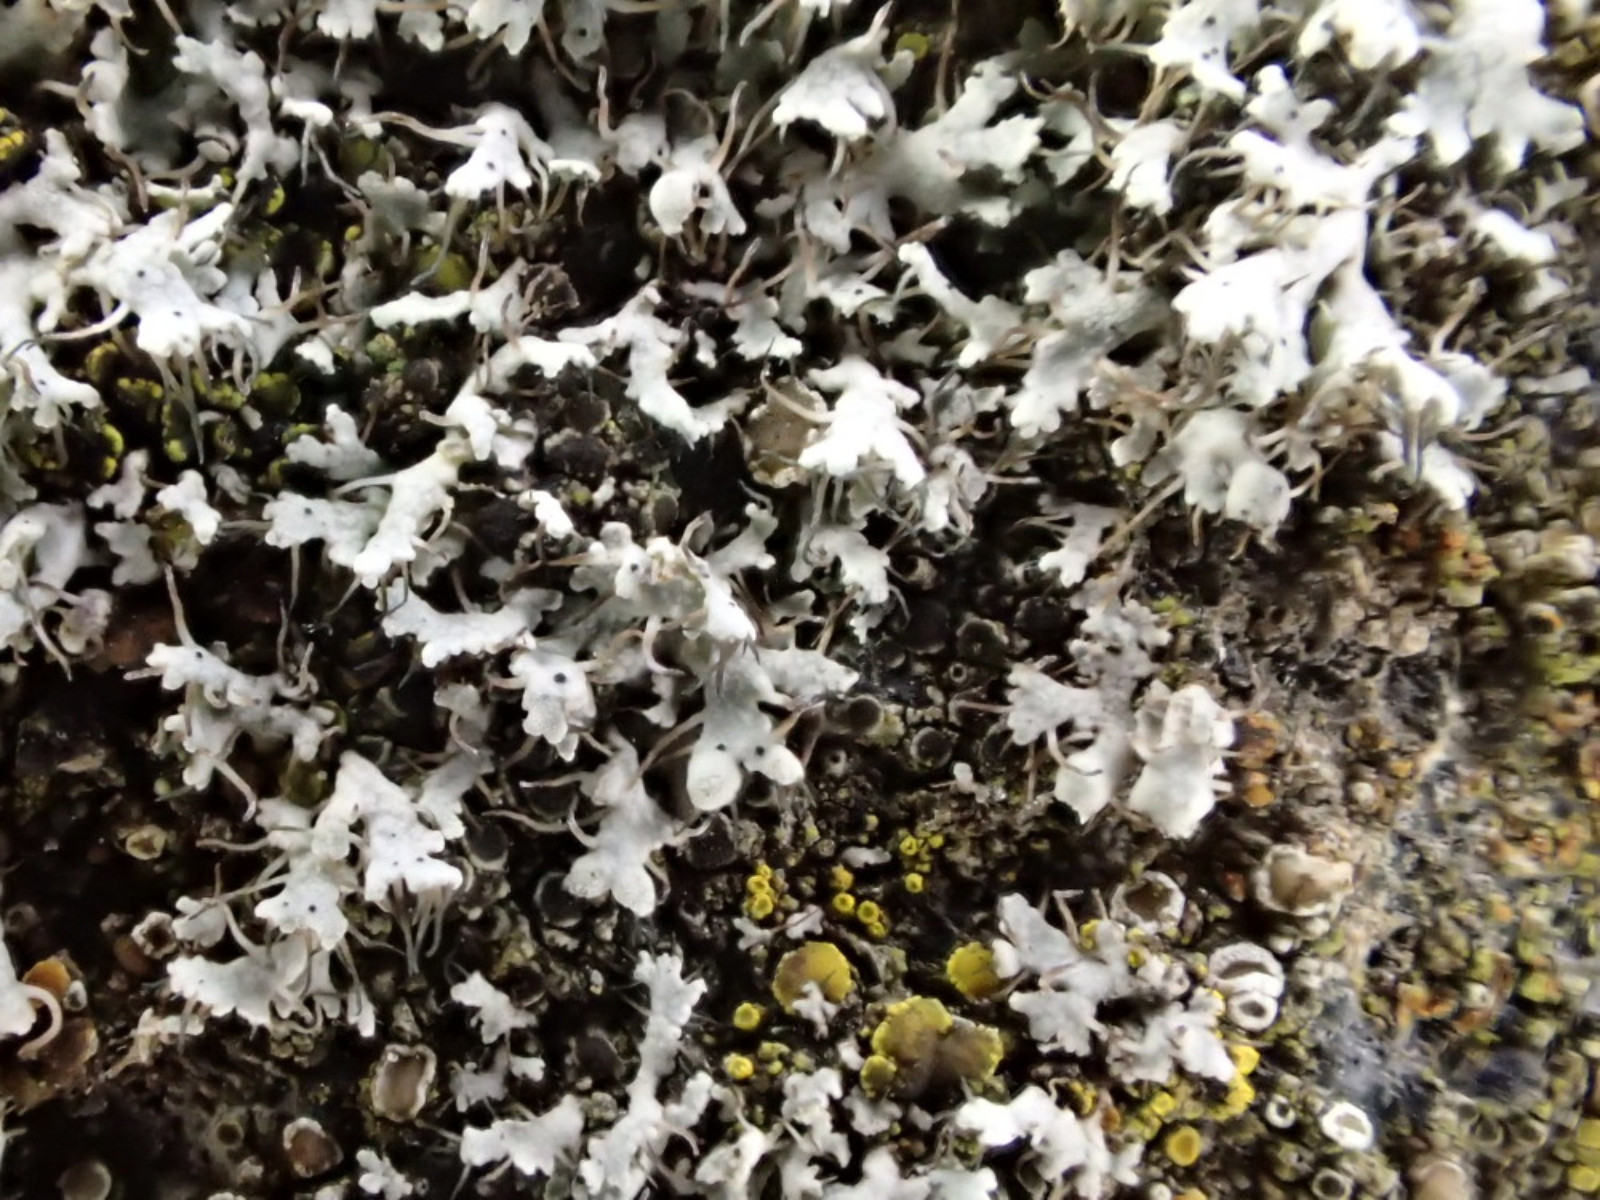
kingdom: Fungi
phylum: Ascomycota
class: Lecanoromycetes
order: Caliciales
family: Physciaceae
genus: Physcia
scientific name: Physcia tenella
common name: spæd rosetlav
